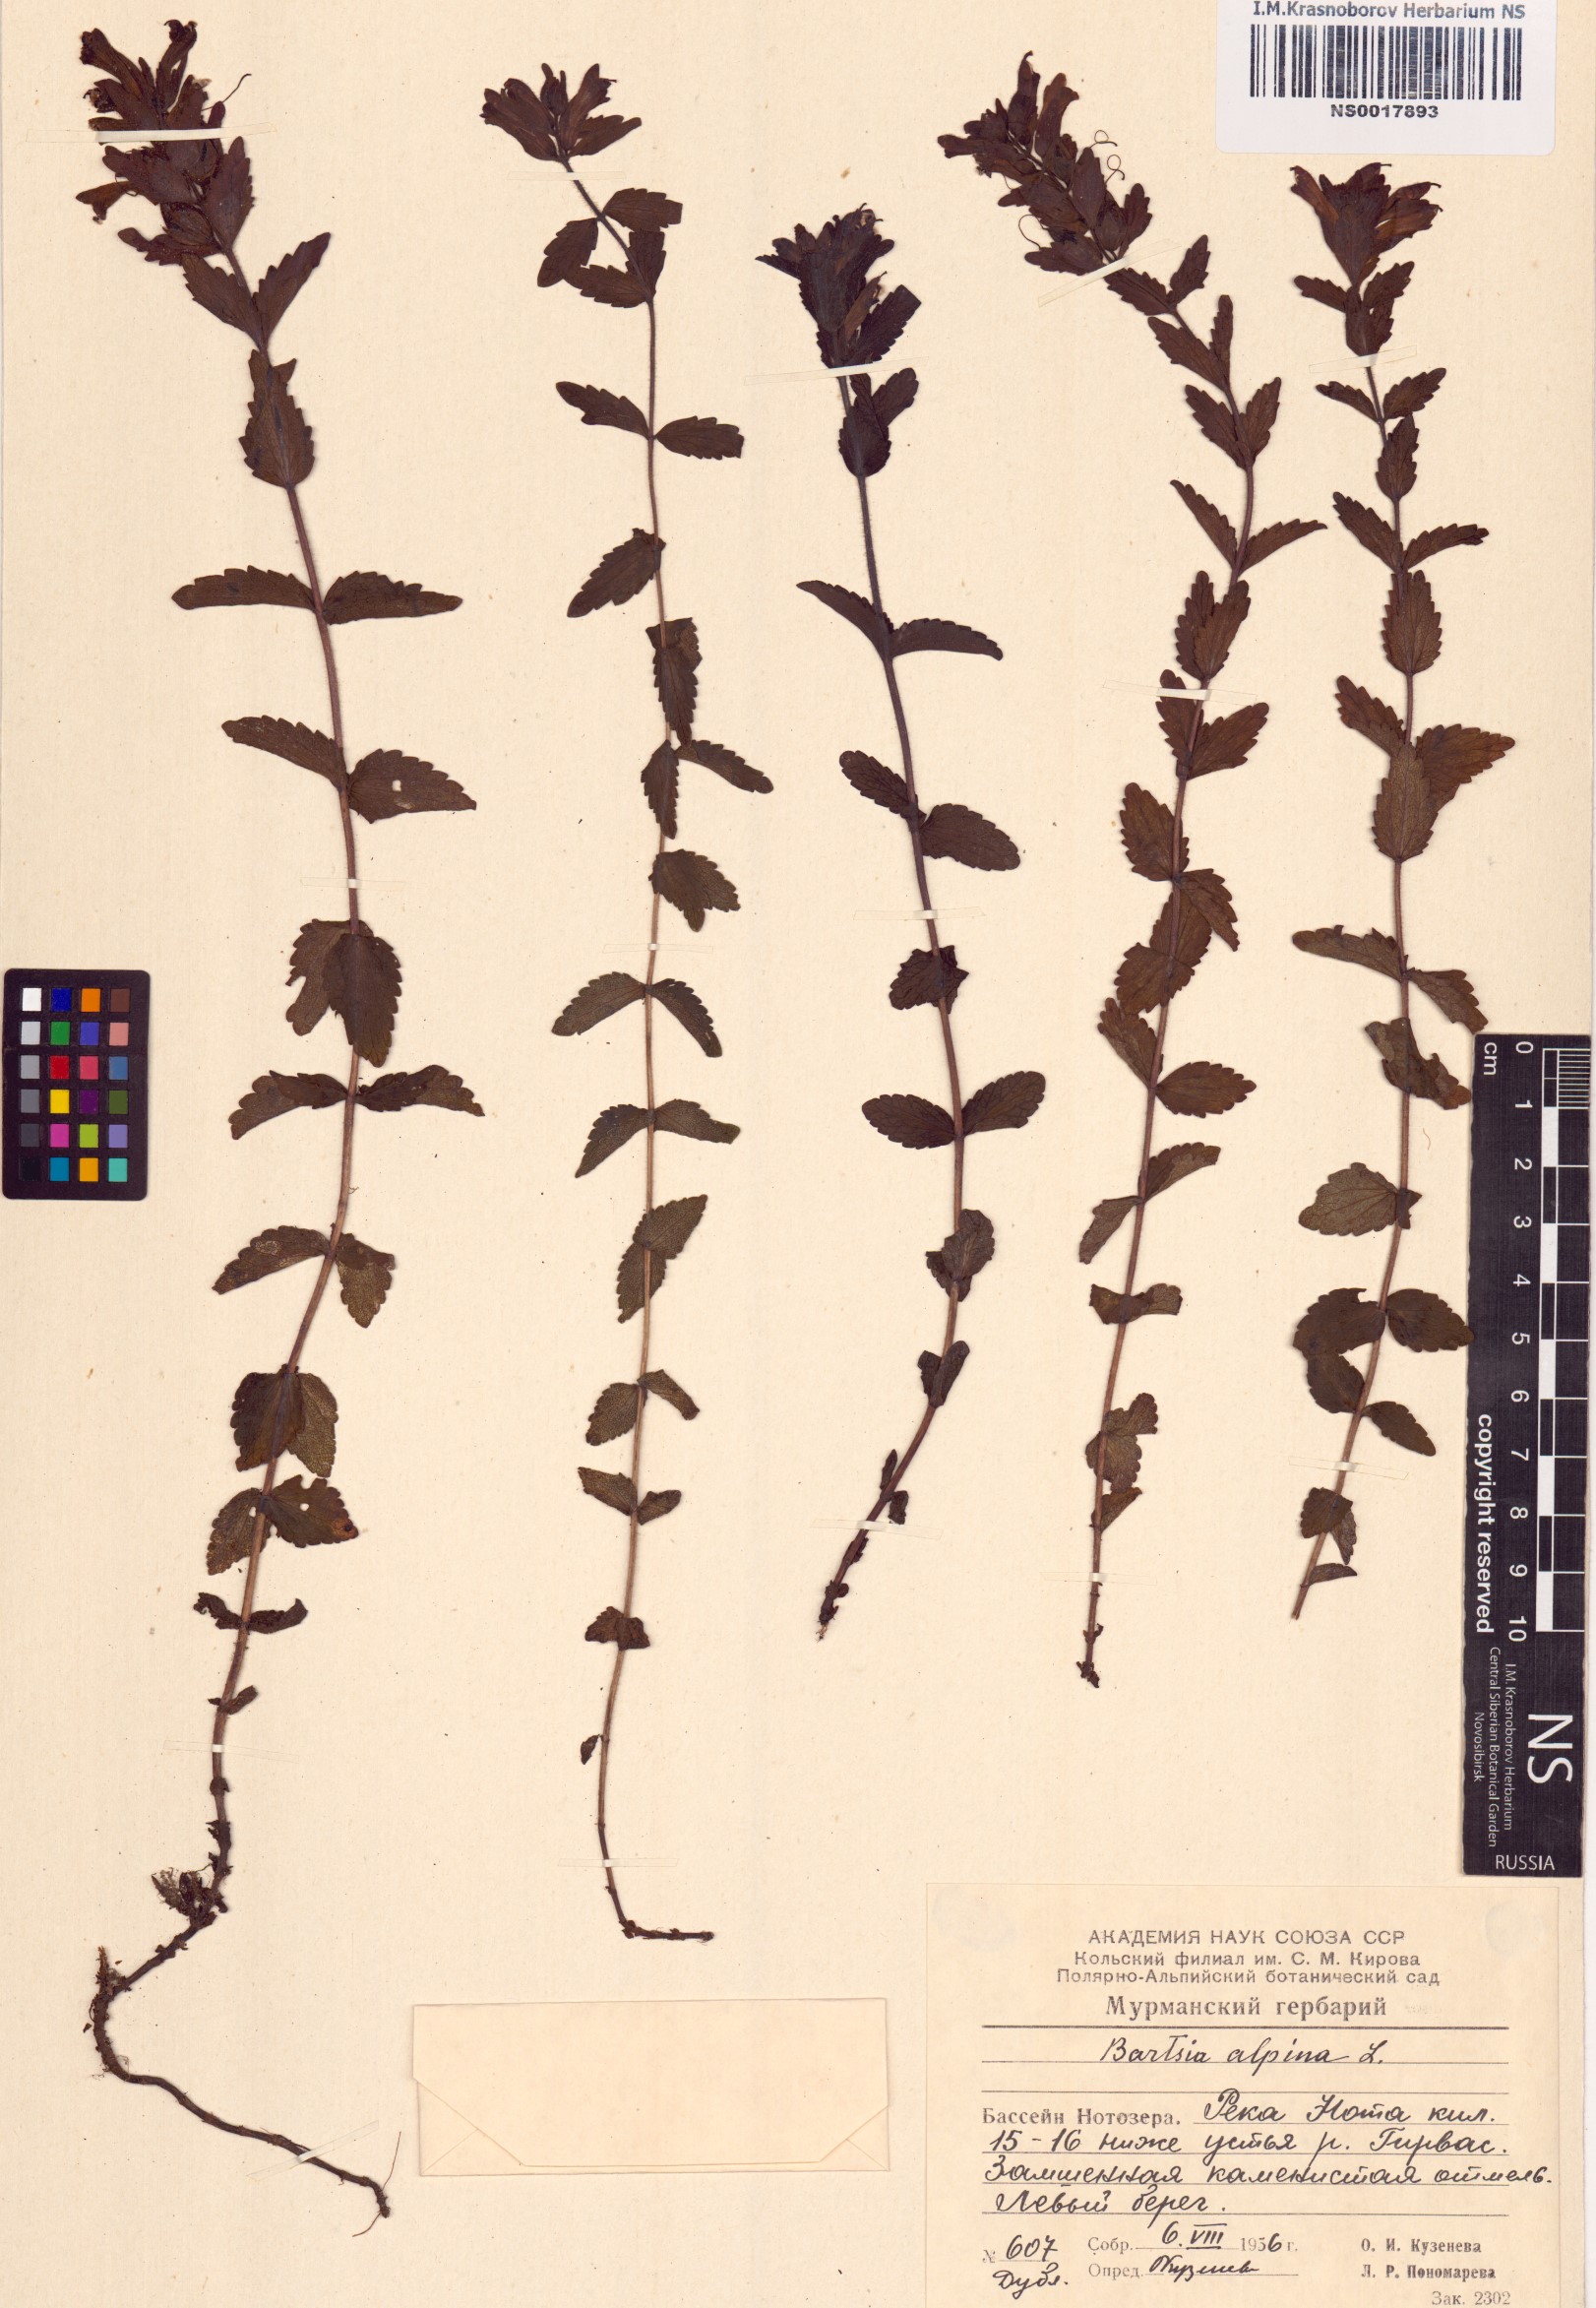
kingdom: Plantae
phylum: Tracheophyta
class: Magnoliopsida
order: Lamiales
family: Orobanchaceae
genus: Bartsia
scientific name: Bartsia alpina
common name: Alpine bartsia
